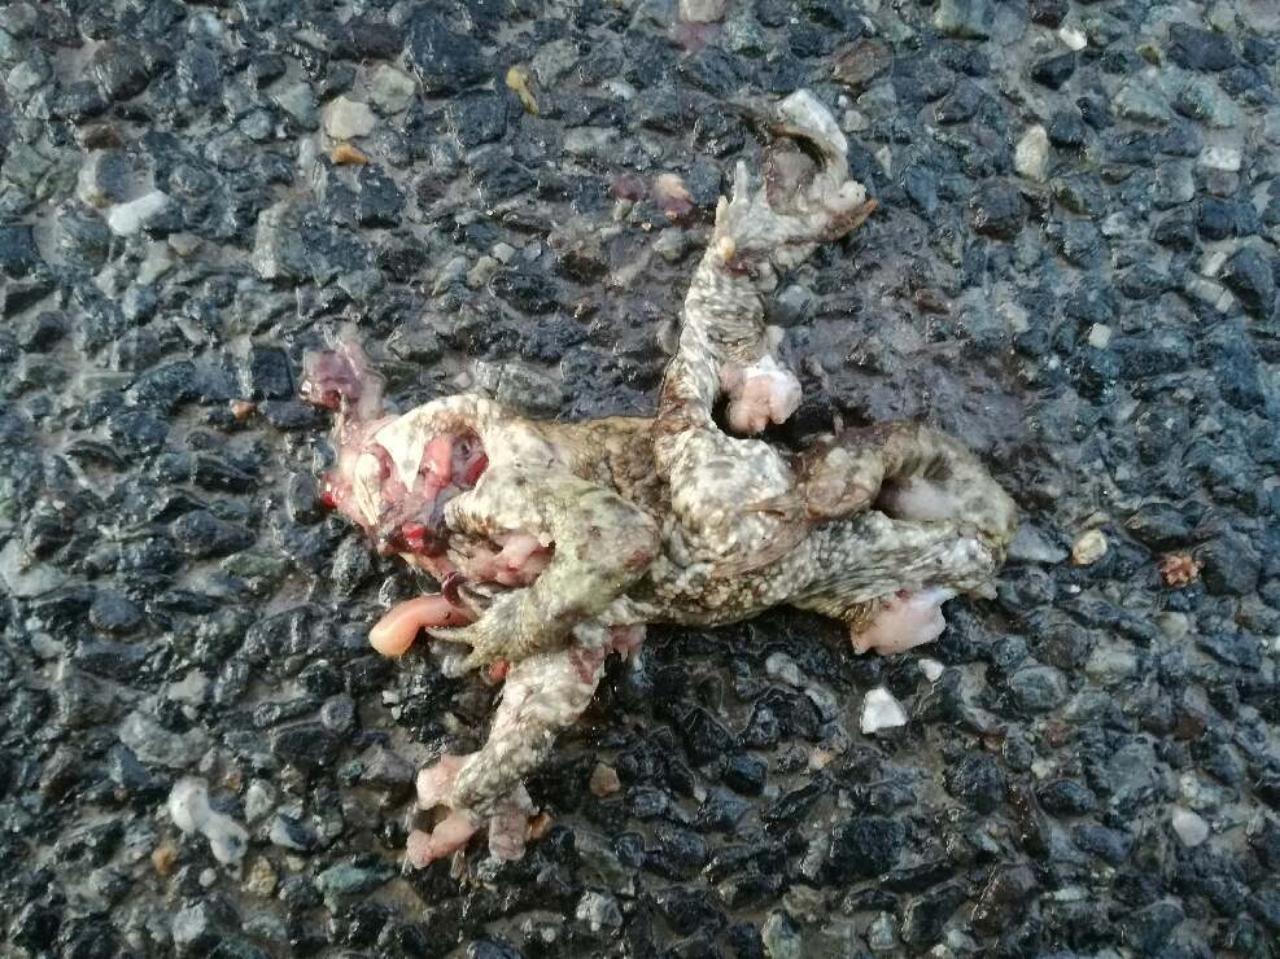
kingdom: Animalia
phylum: Chordata
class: Amphibia
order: Anura
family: Bufonidae
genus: Bufo
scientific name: Bufo bufo
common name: Common toad
